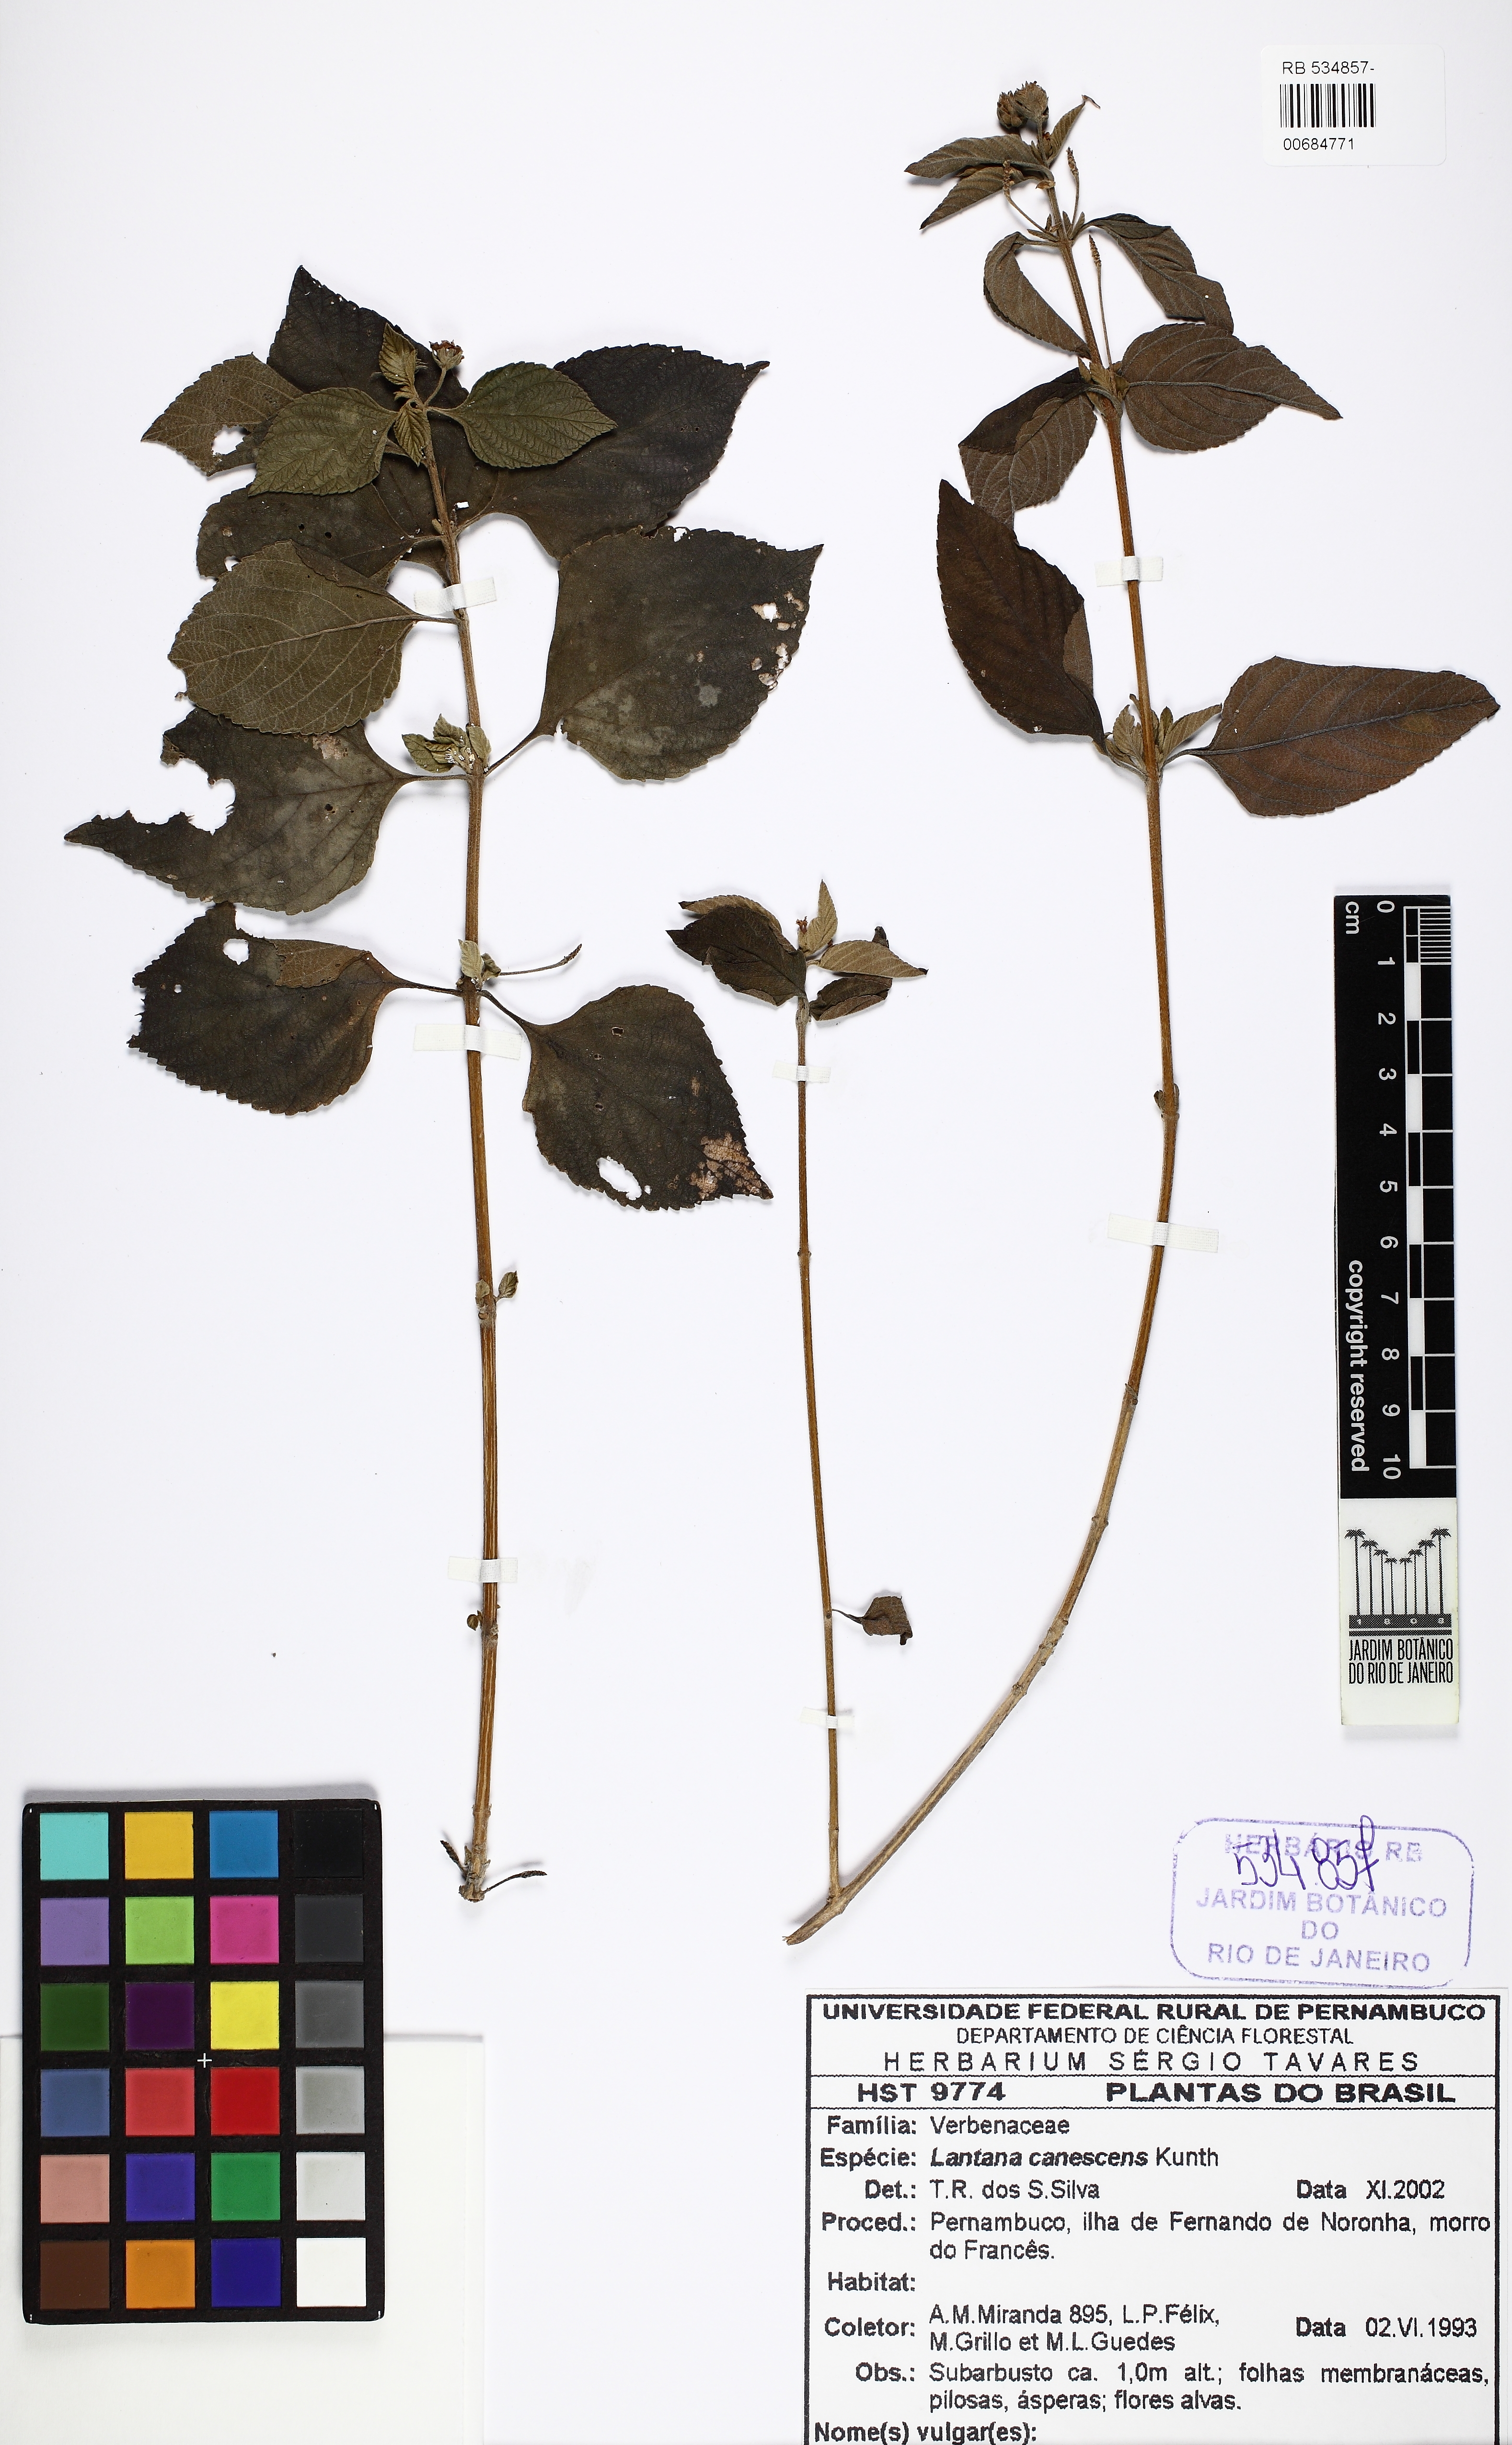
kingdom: Plantae
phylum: Tracheophyta
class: Magnoliopsida
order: Lamiales
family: Verbenaceae
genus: Lantana
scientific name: Lantana canescens
